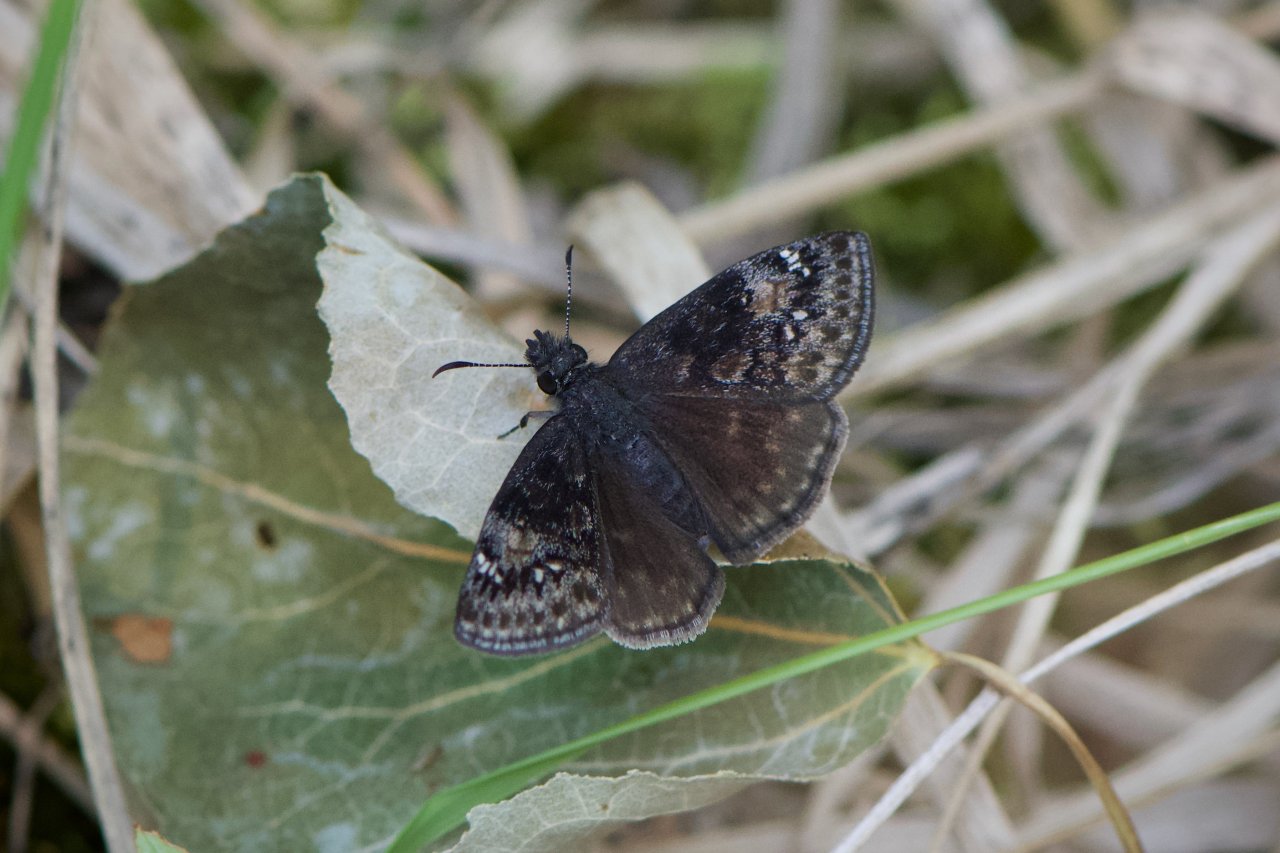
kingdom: Animalia
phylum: Arthropoda
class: Insecta
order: Lepidoptera
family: Hesperiidae
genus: Gesta
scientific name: Gesta
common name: Columbine Duskywing
